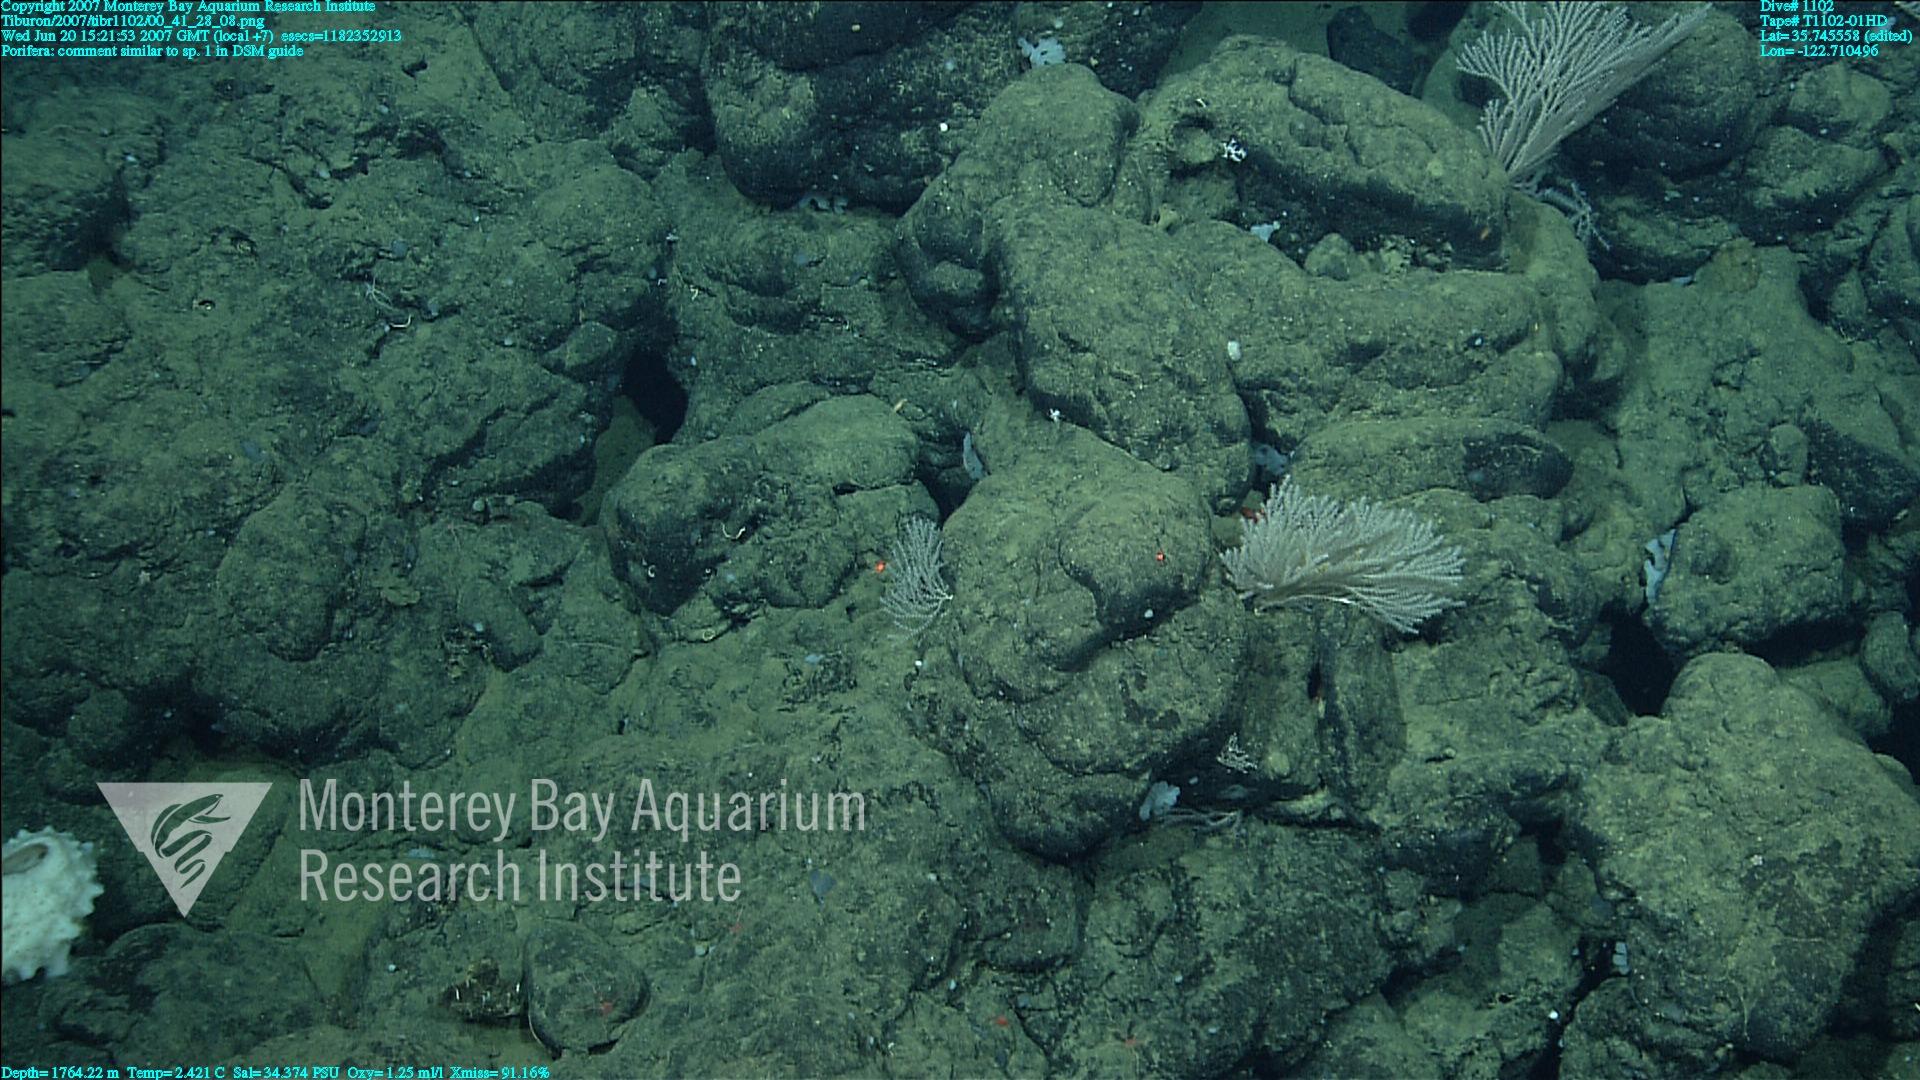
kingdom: Animalia
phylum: Porifera
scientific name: Porifera
